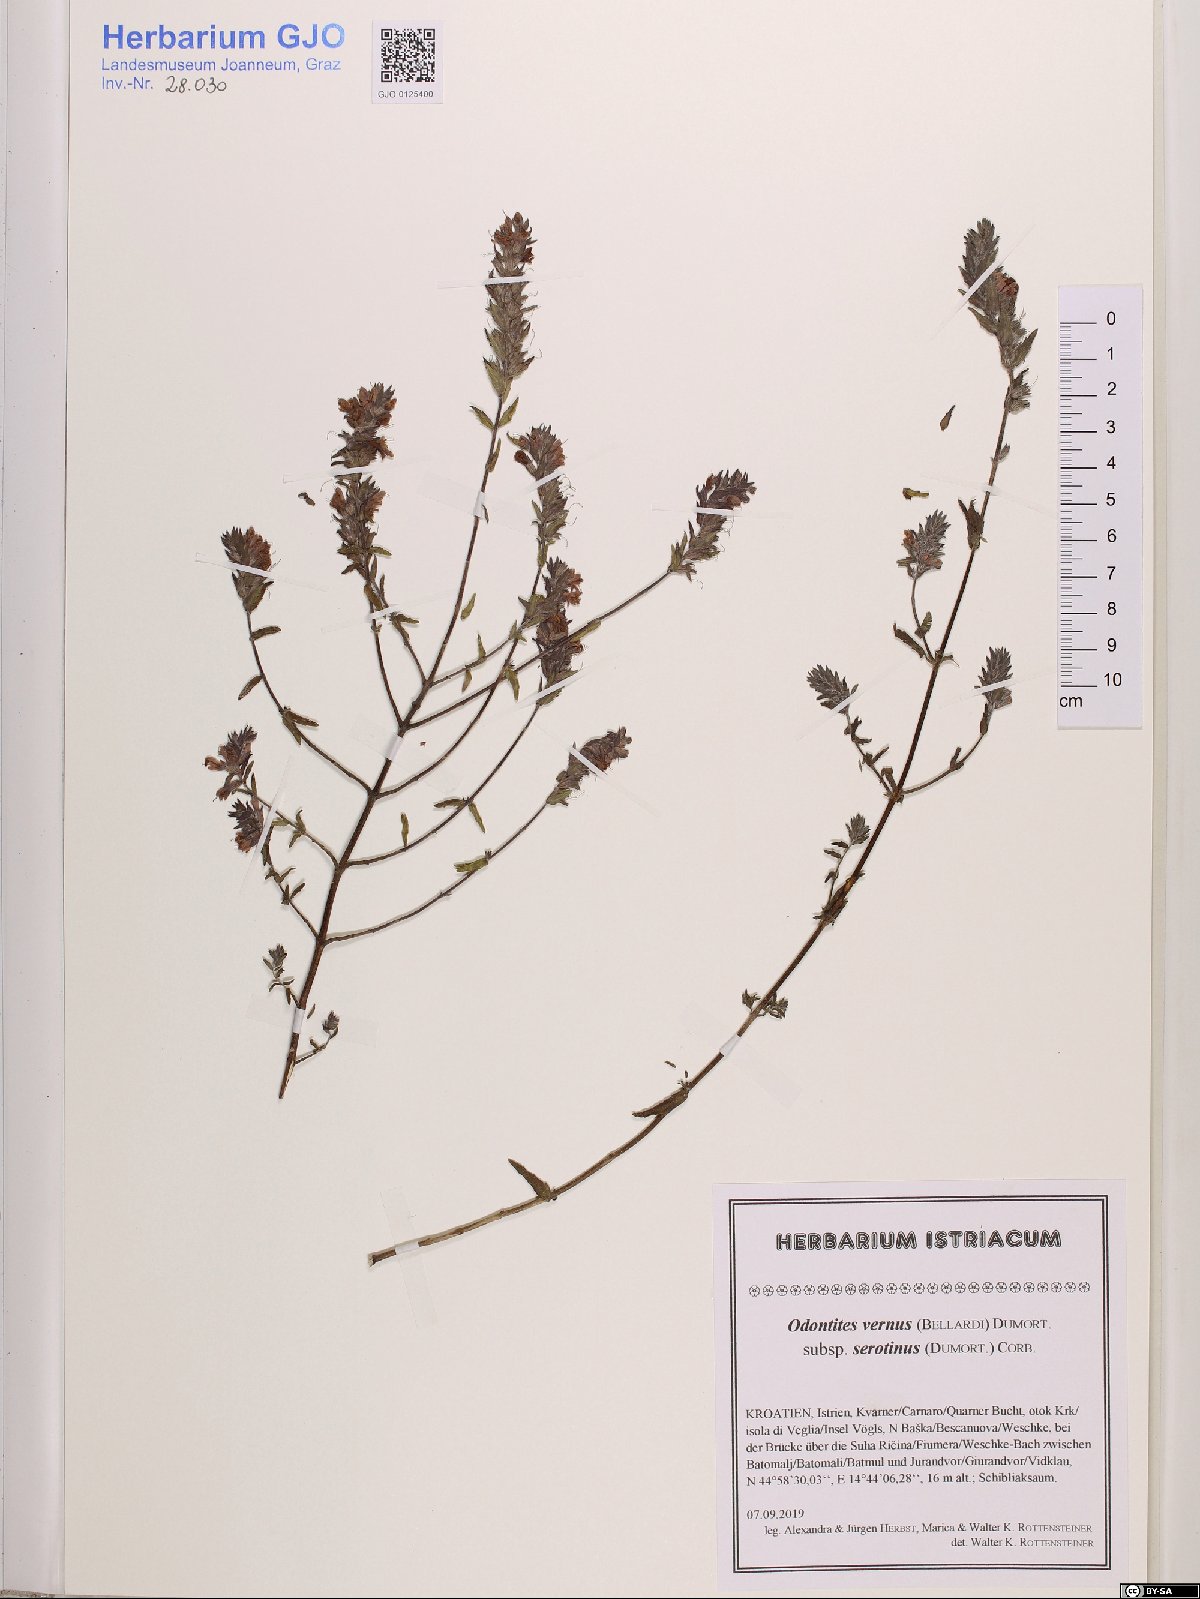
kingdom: Plantae
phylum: Tracheophyta
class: Magnoliopsida
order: Lamiales
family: Orobanchaceae
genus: Odontites
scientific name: Odontites vulgaris
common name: Broomrape
